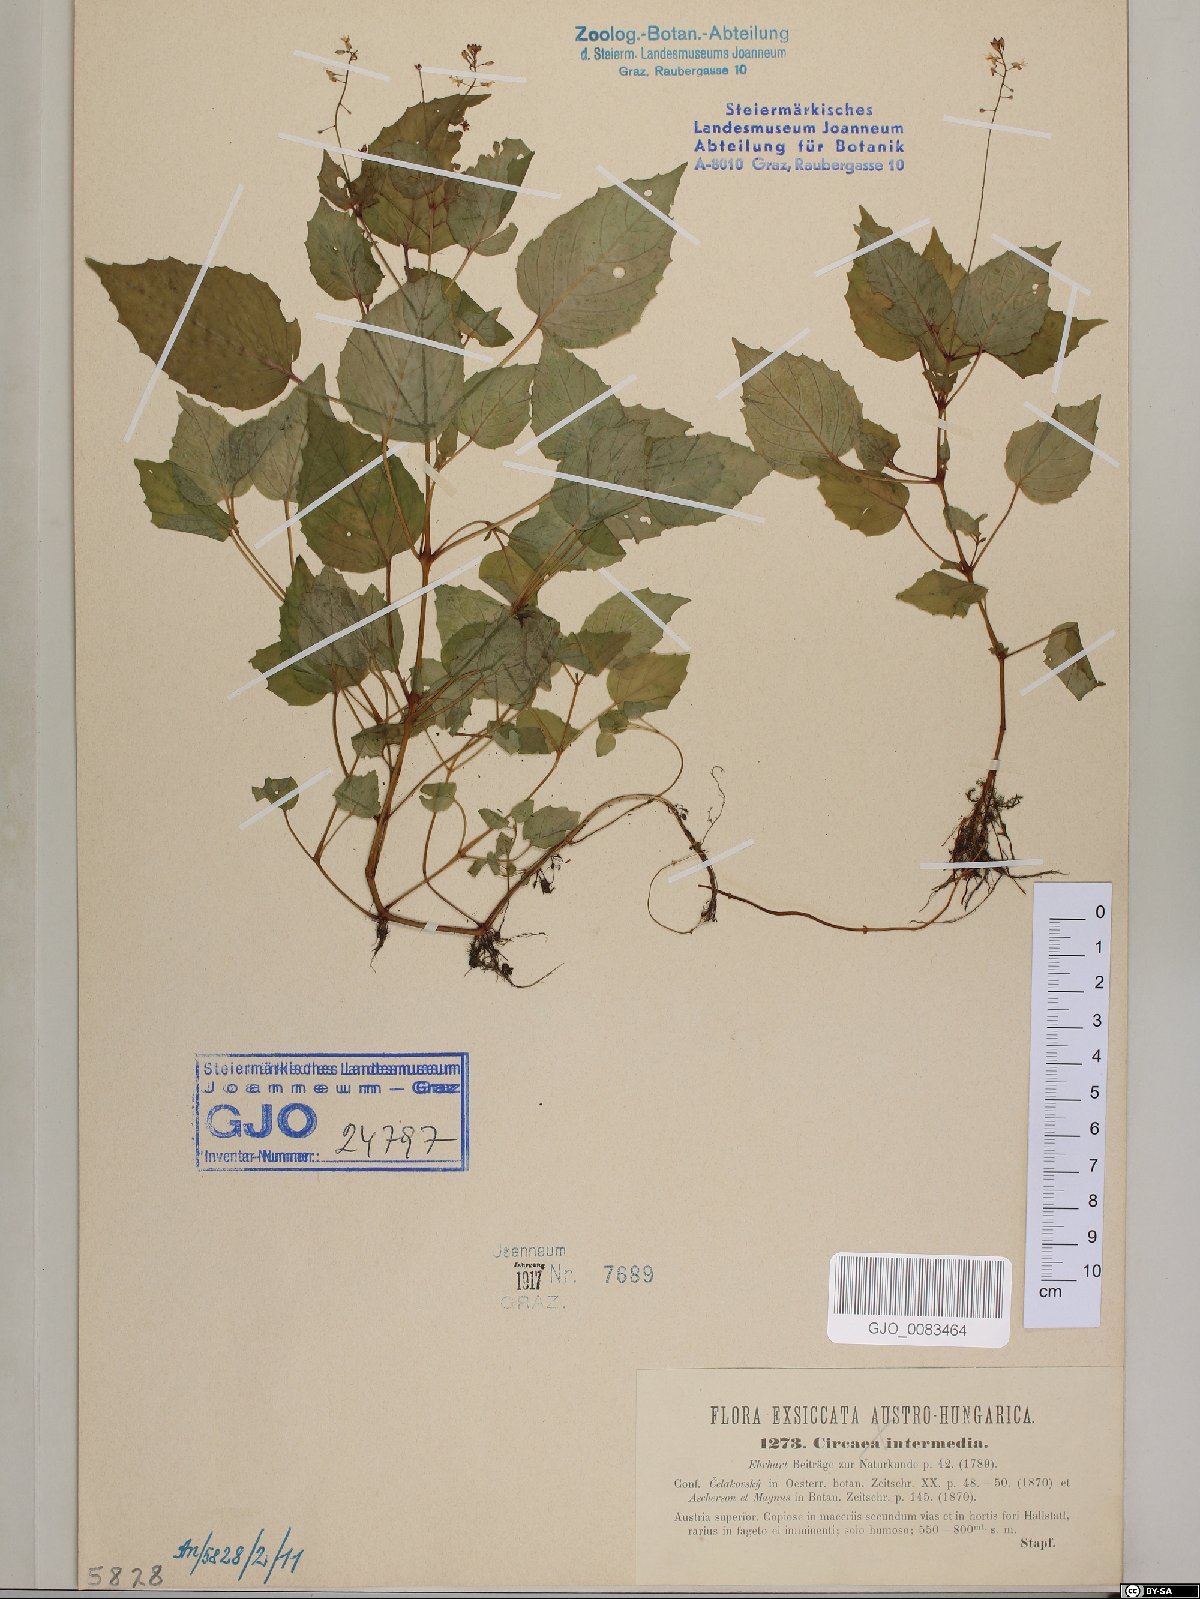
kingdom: Plantae
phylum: Tracheophyta
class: Magnoliopsida
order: Myrtales
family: Onagraceae
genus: Circaea
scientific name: Circaea intermedia
